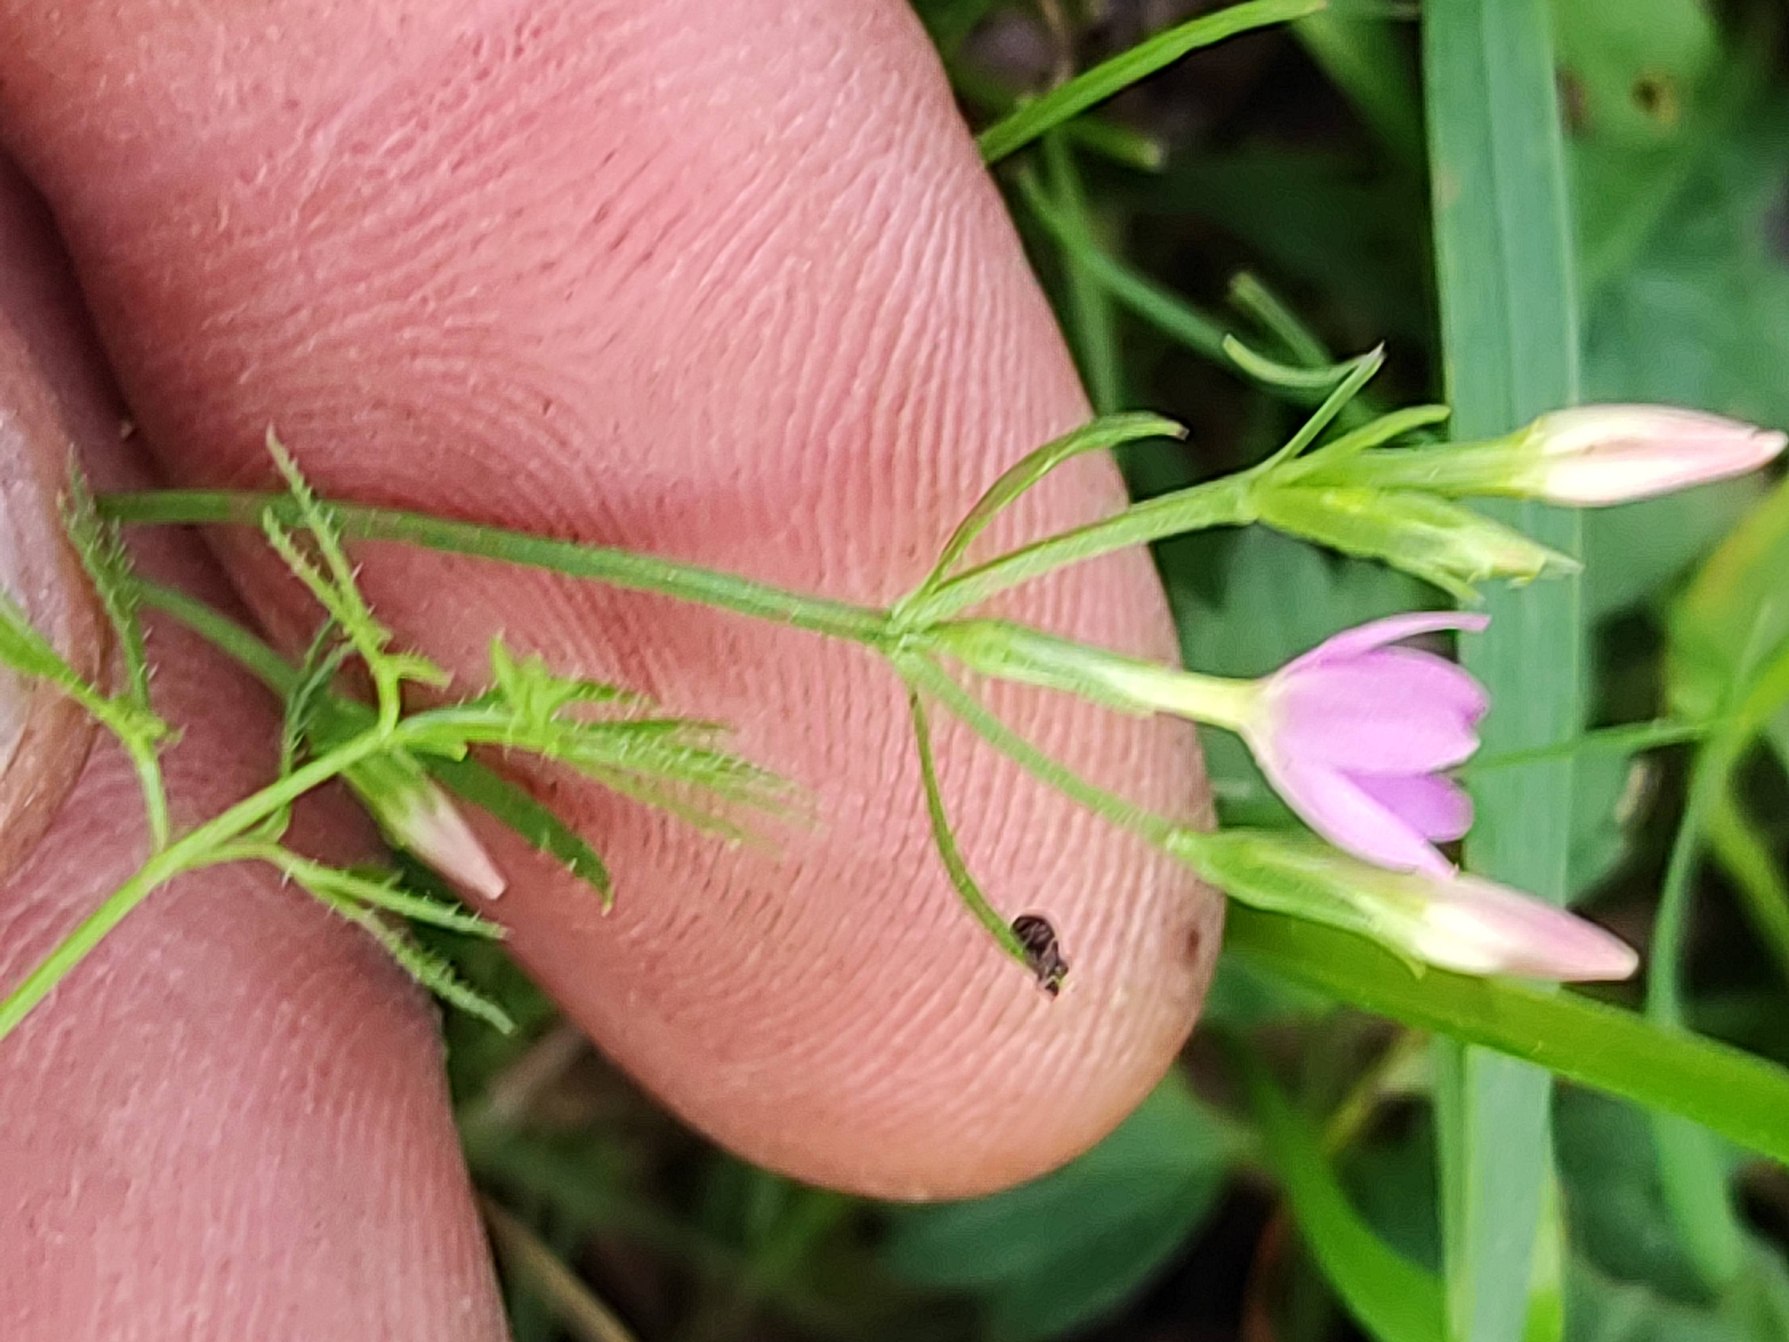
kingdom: Plantae
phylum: Tracheophyta
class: Magnoliopsida
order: Gentianales
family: Gentianaceae
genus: Centaurium
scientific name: Centaurium erythraea
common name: Mark-tusindgylden
